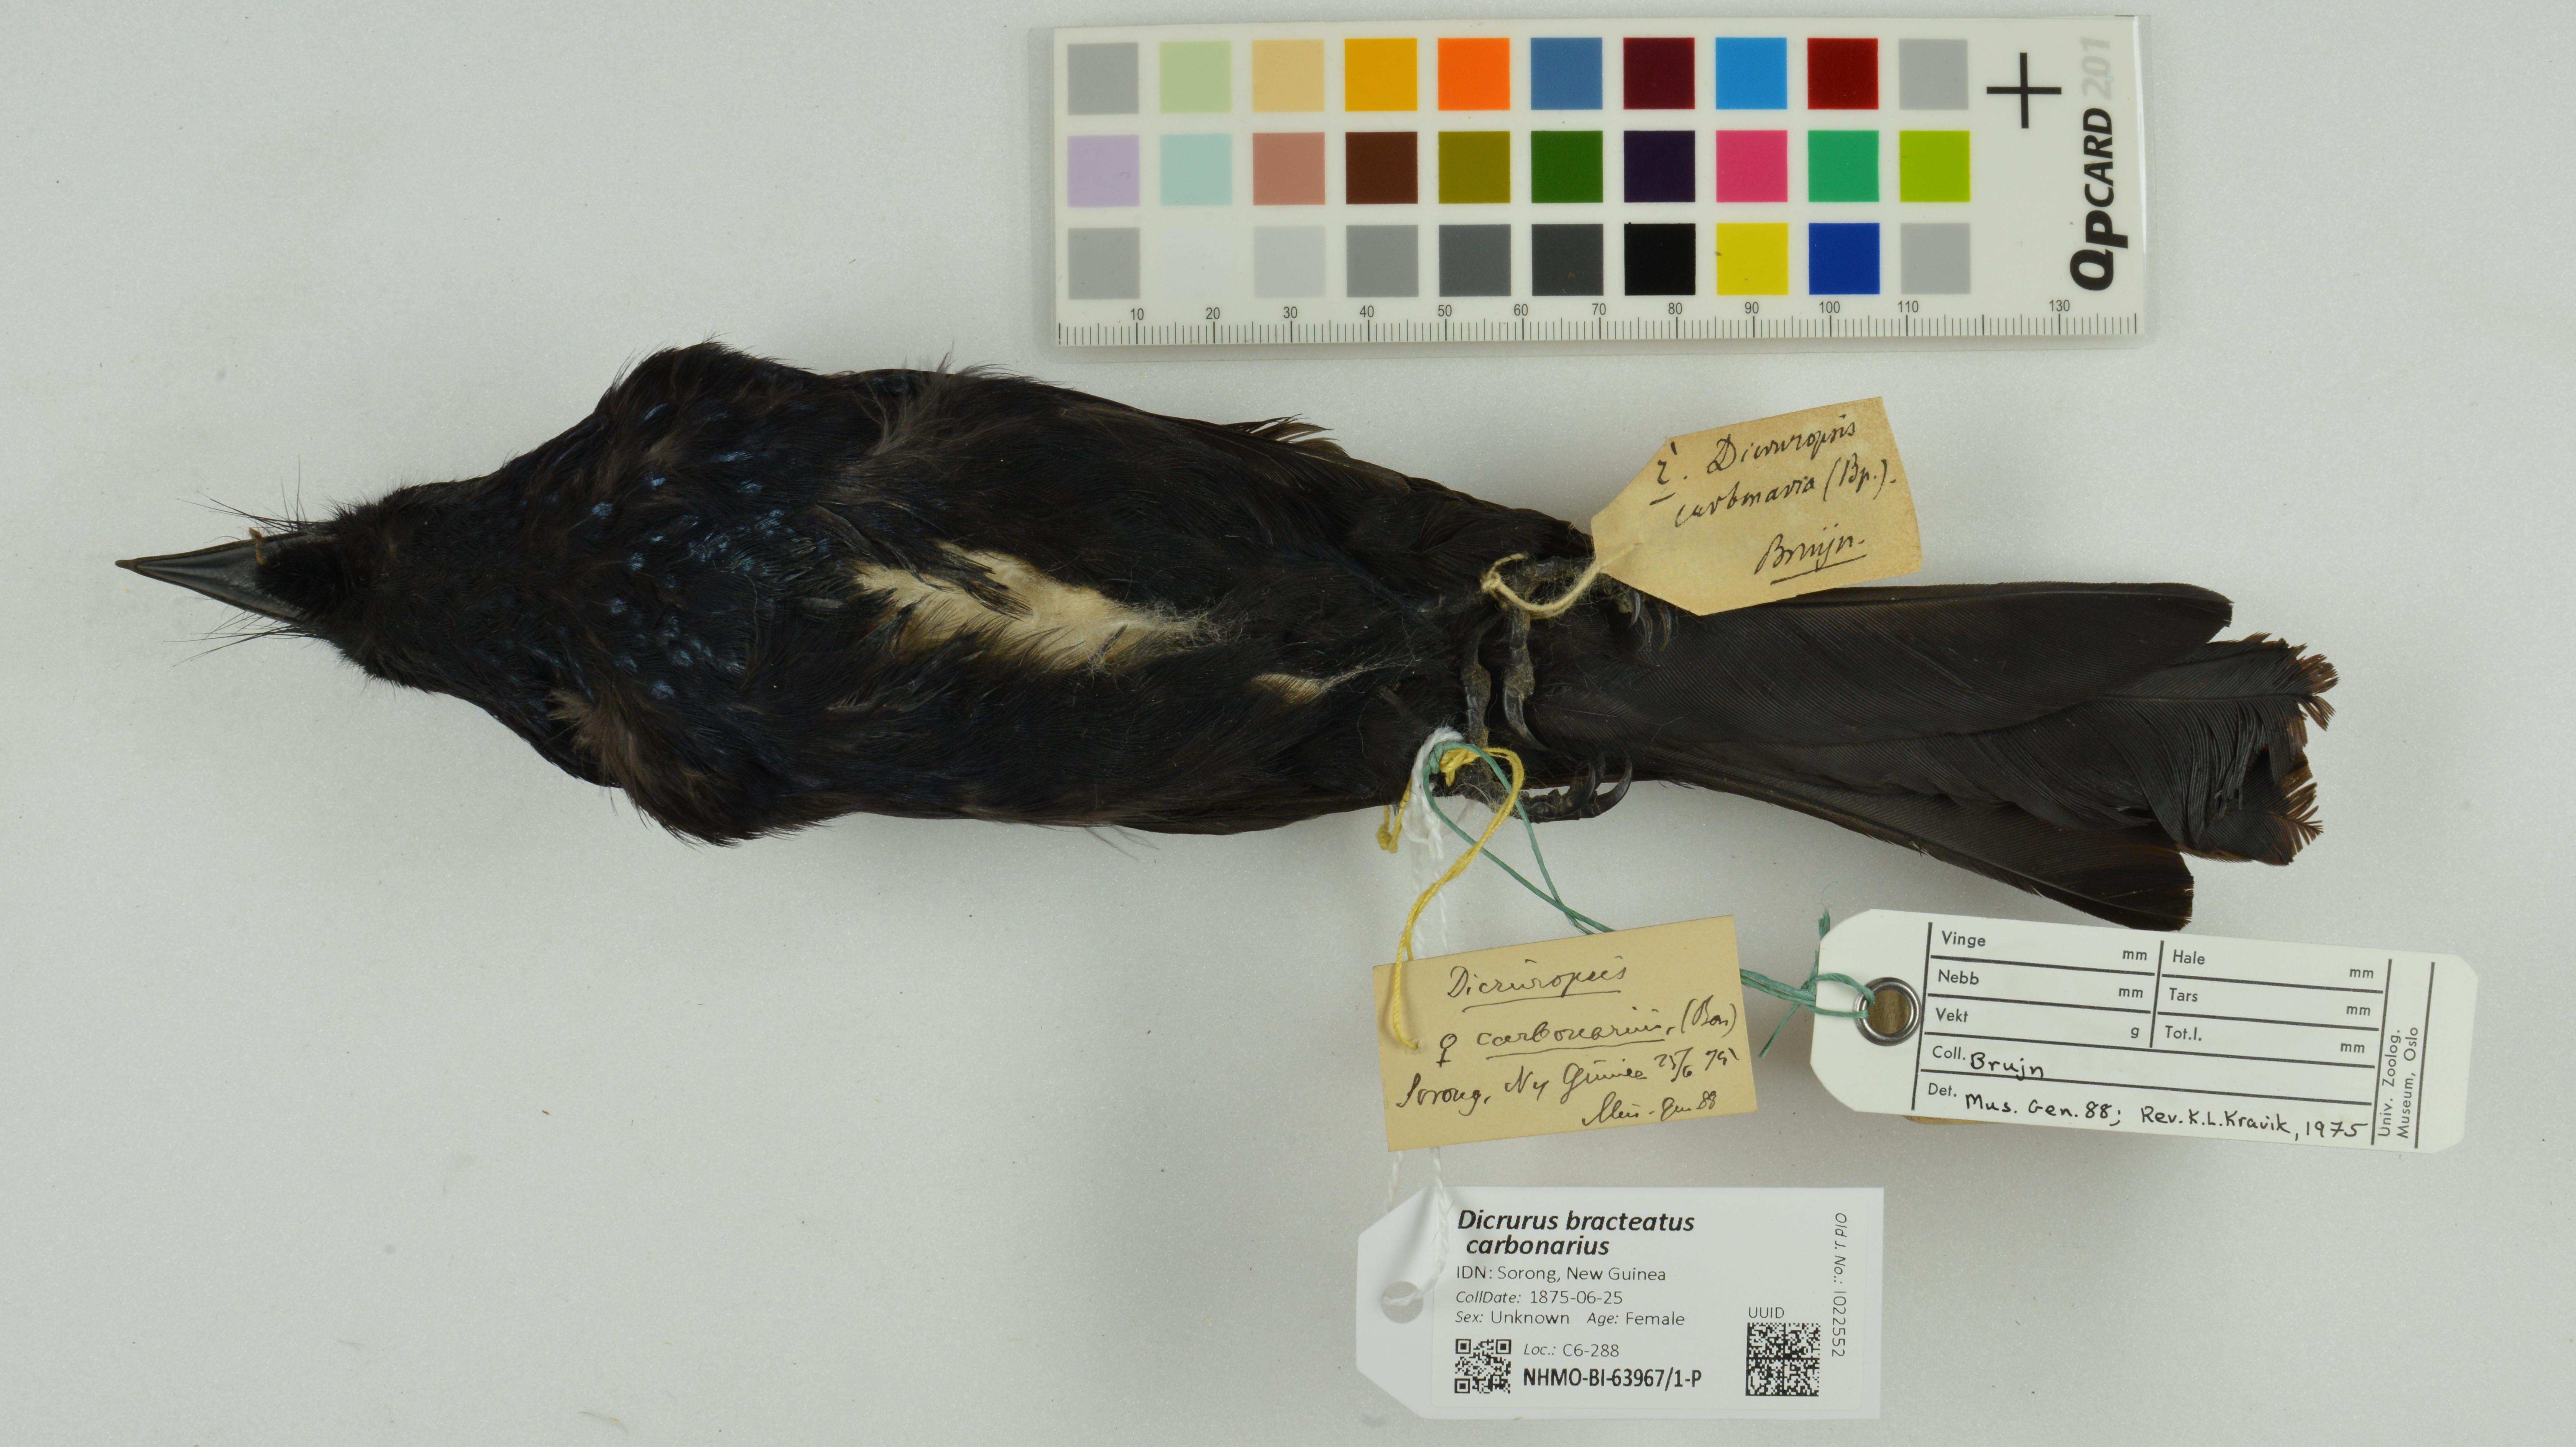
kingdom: Animalia
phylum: Chordata
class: Aves
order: Passeriformes
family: Dicruridae
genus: Dicrurus
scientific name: Dicrurus bracteatus
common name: Spangled drongo
